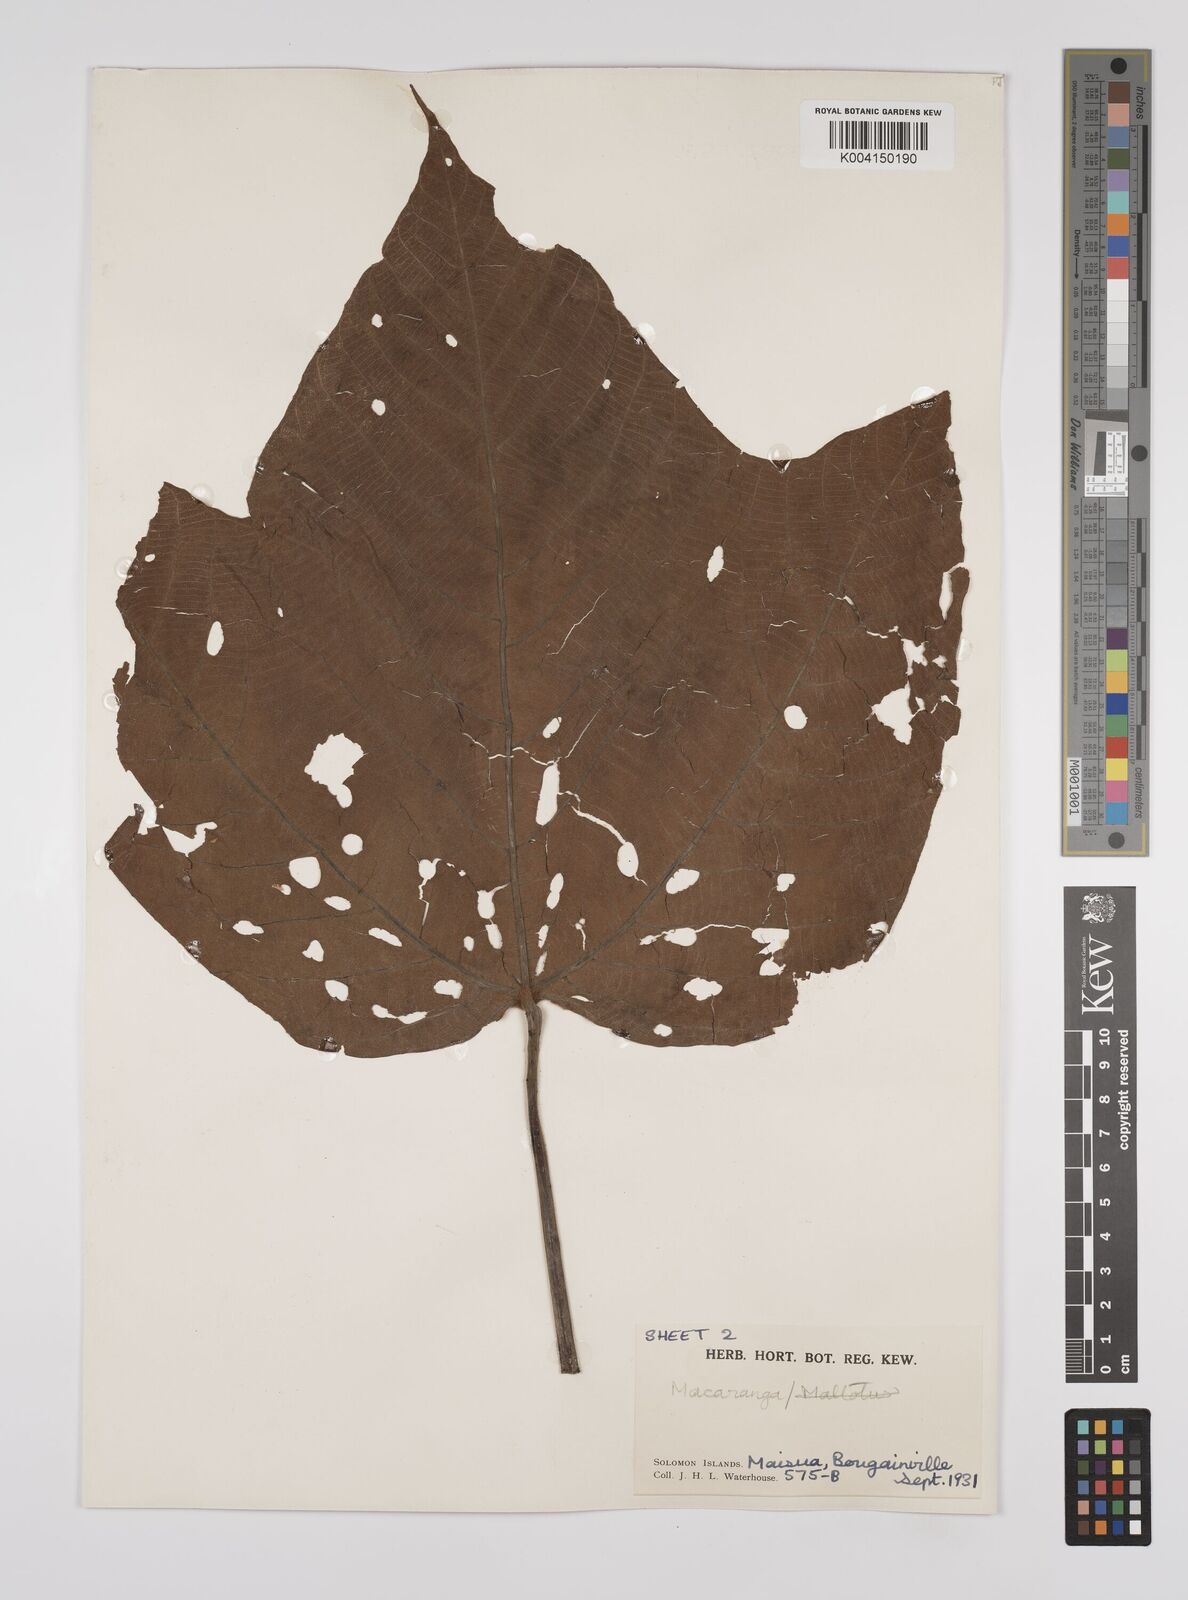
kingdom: Plantae
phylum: Tracheophyta
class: Magnoliopsida
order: Malpighiales
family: Euphorbiaceae
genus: Macaranga
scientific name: Macaranga aleuritoides
